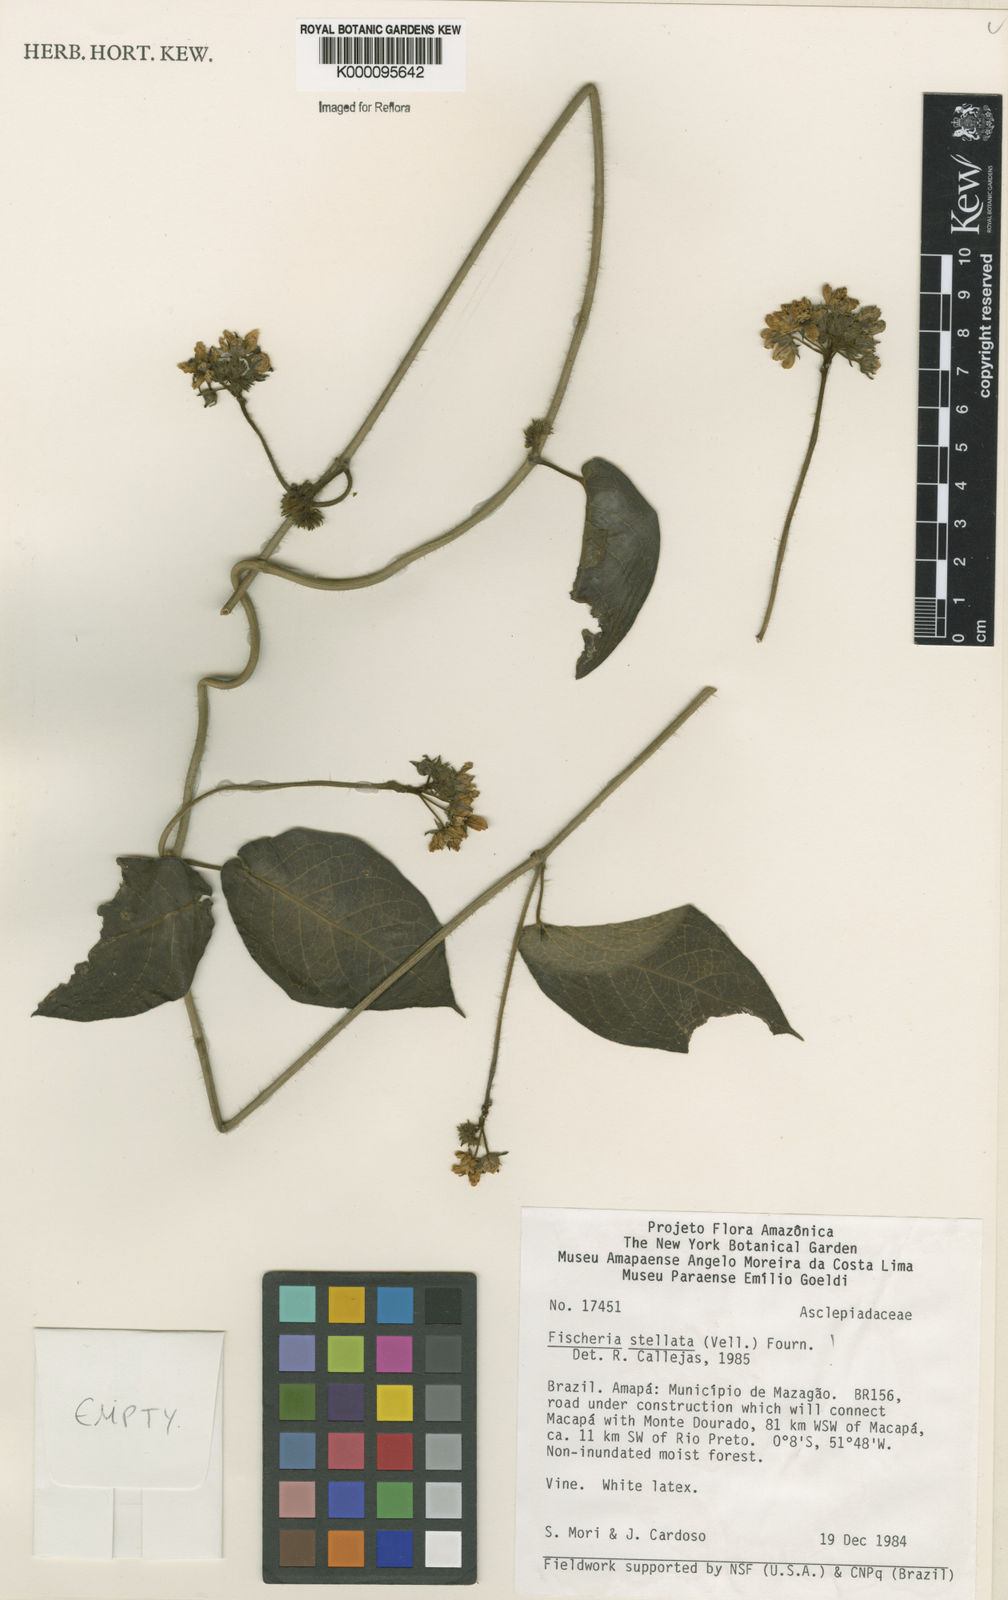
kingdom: Plantae
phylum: Tracheophyta
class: Magnoliopsida
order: Gentianales
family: Apocynaceae
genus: Fischeria
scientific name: Fischeria stellata
